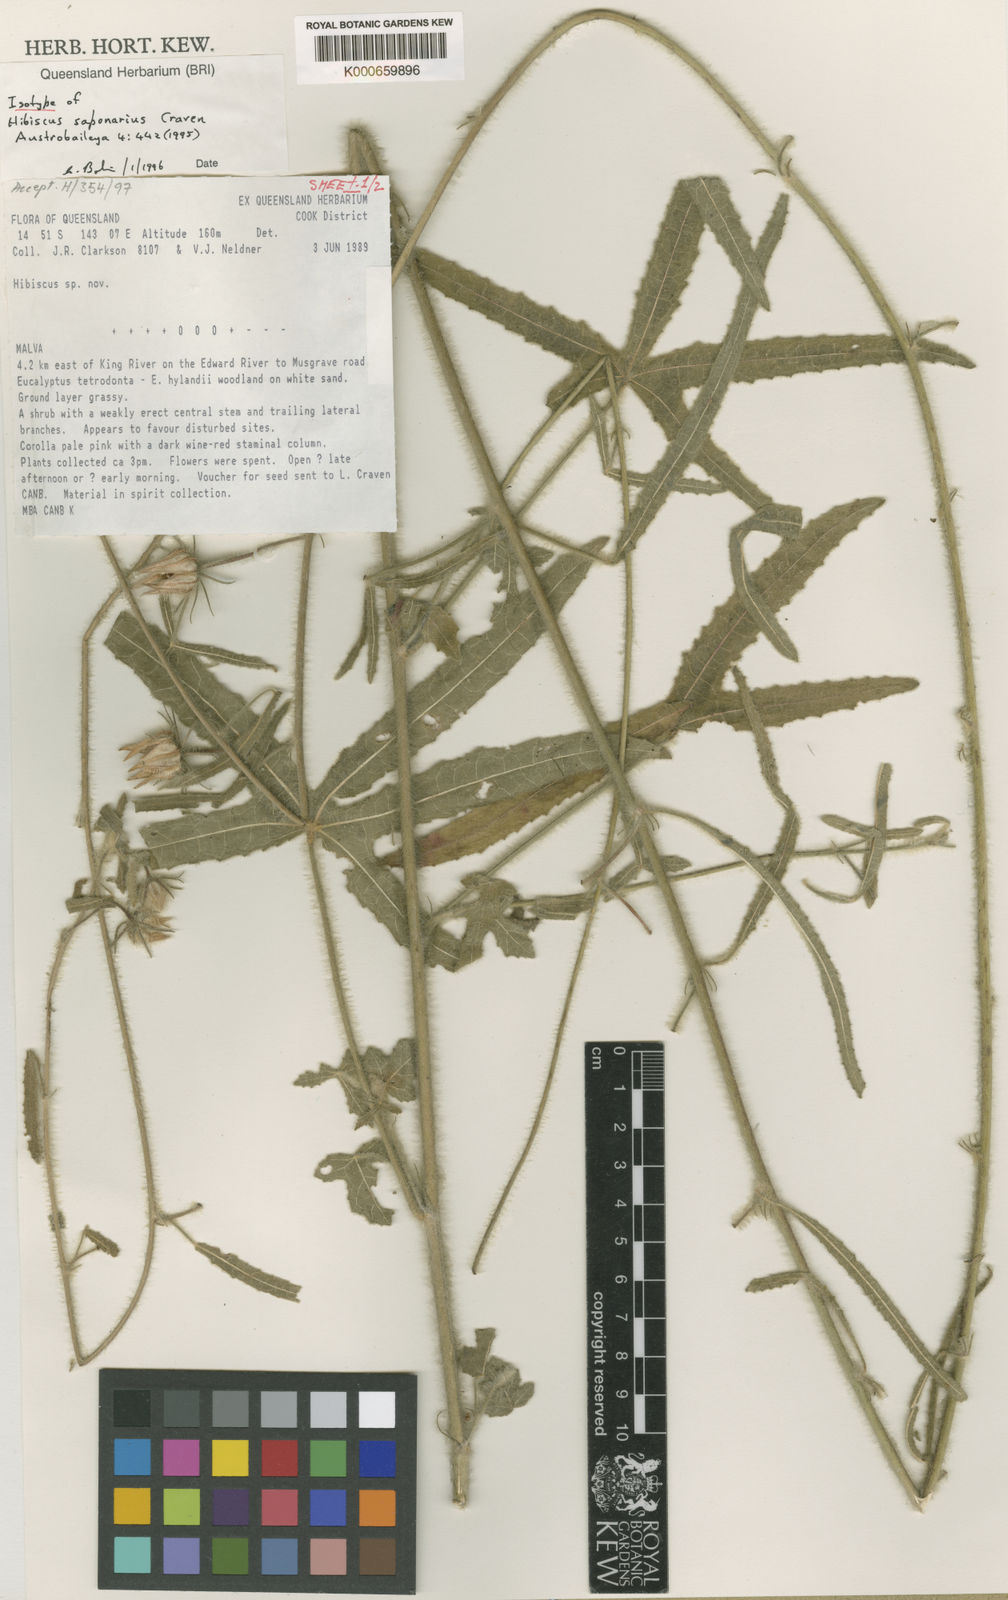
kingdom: Plantae
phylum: Tracheophyta
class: Magnoliopsida
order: Malvales
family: Malvaceae
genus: Hibiscus
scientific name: Hibiscus saponarius
